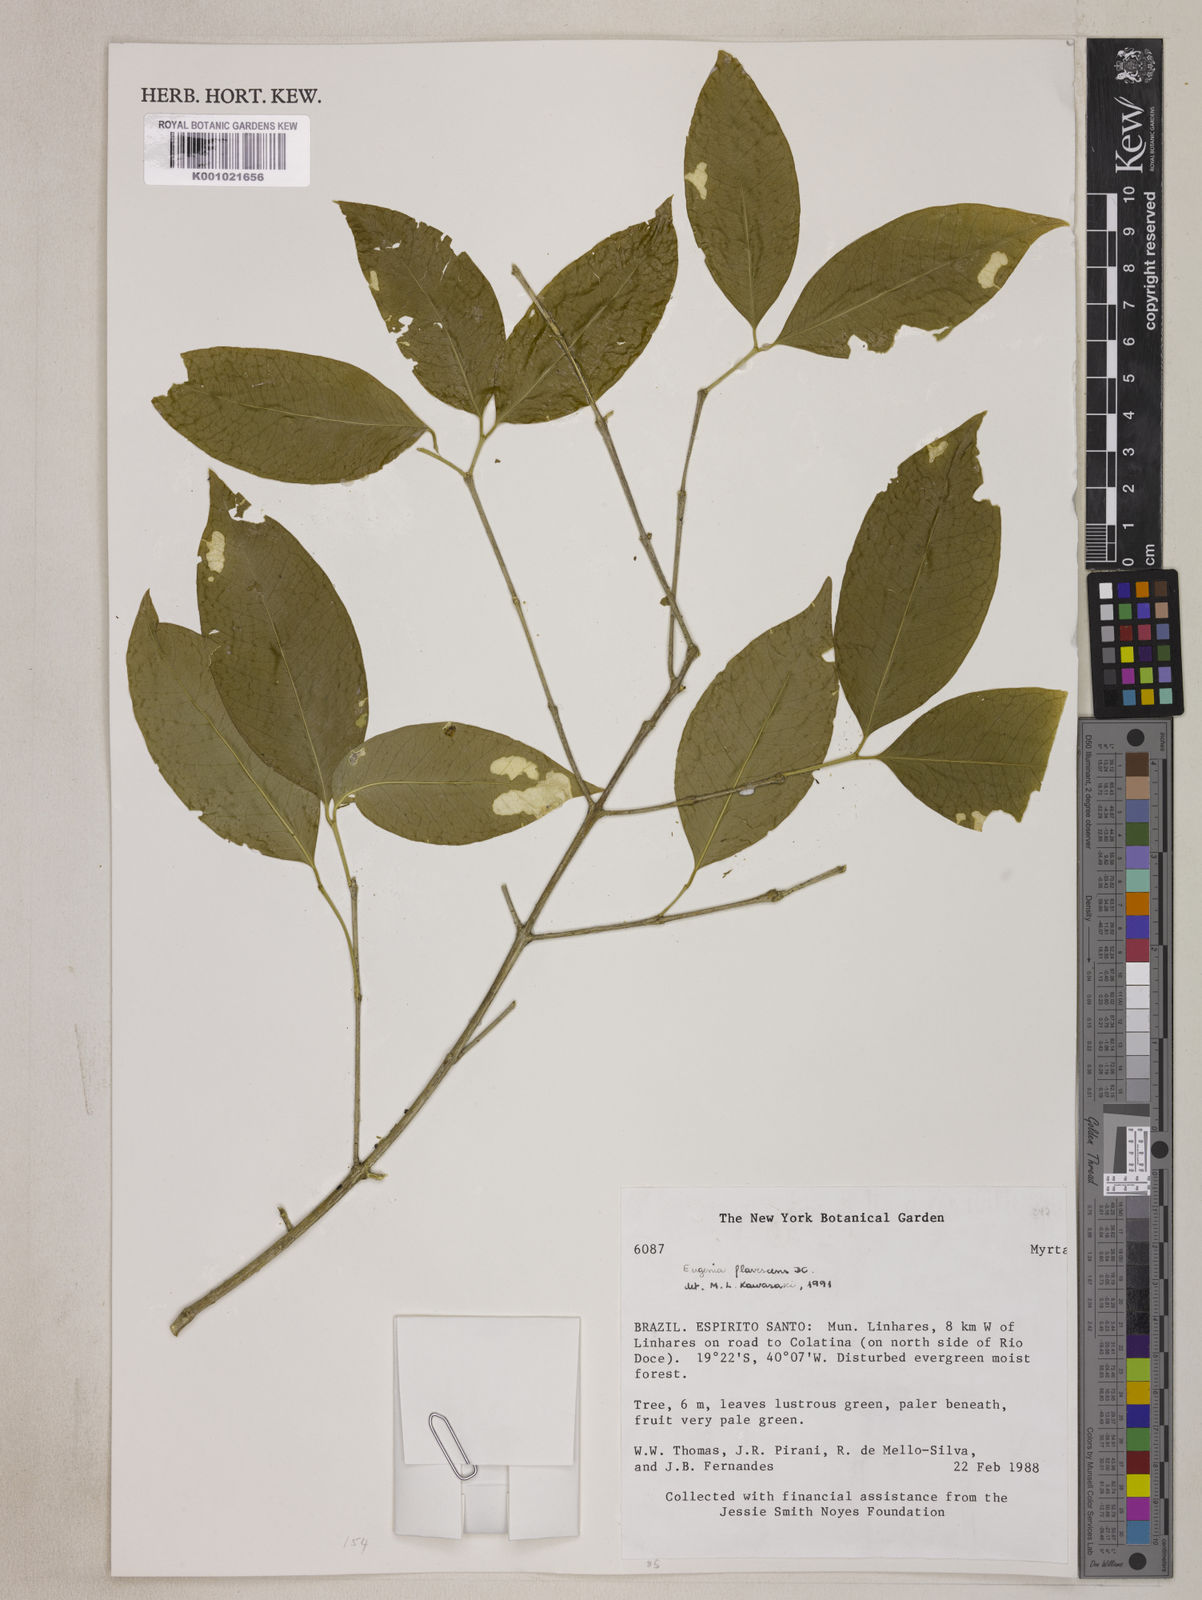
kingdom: Plantae
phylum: Tracheophyta
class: Magnoliopsida
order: Myrtales
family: Myrtaceae
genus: Eugenia
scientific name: Eugenia flavescens
